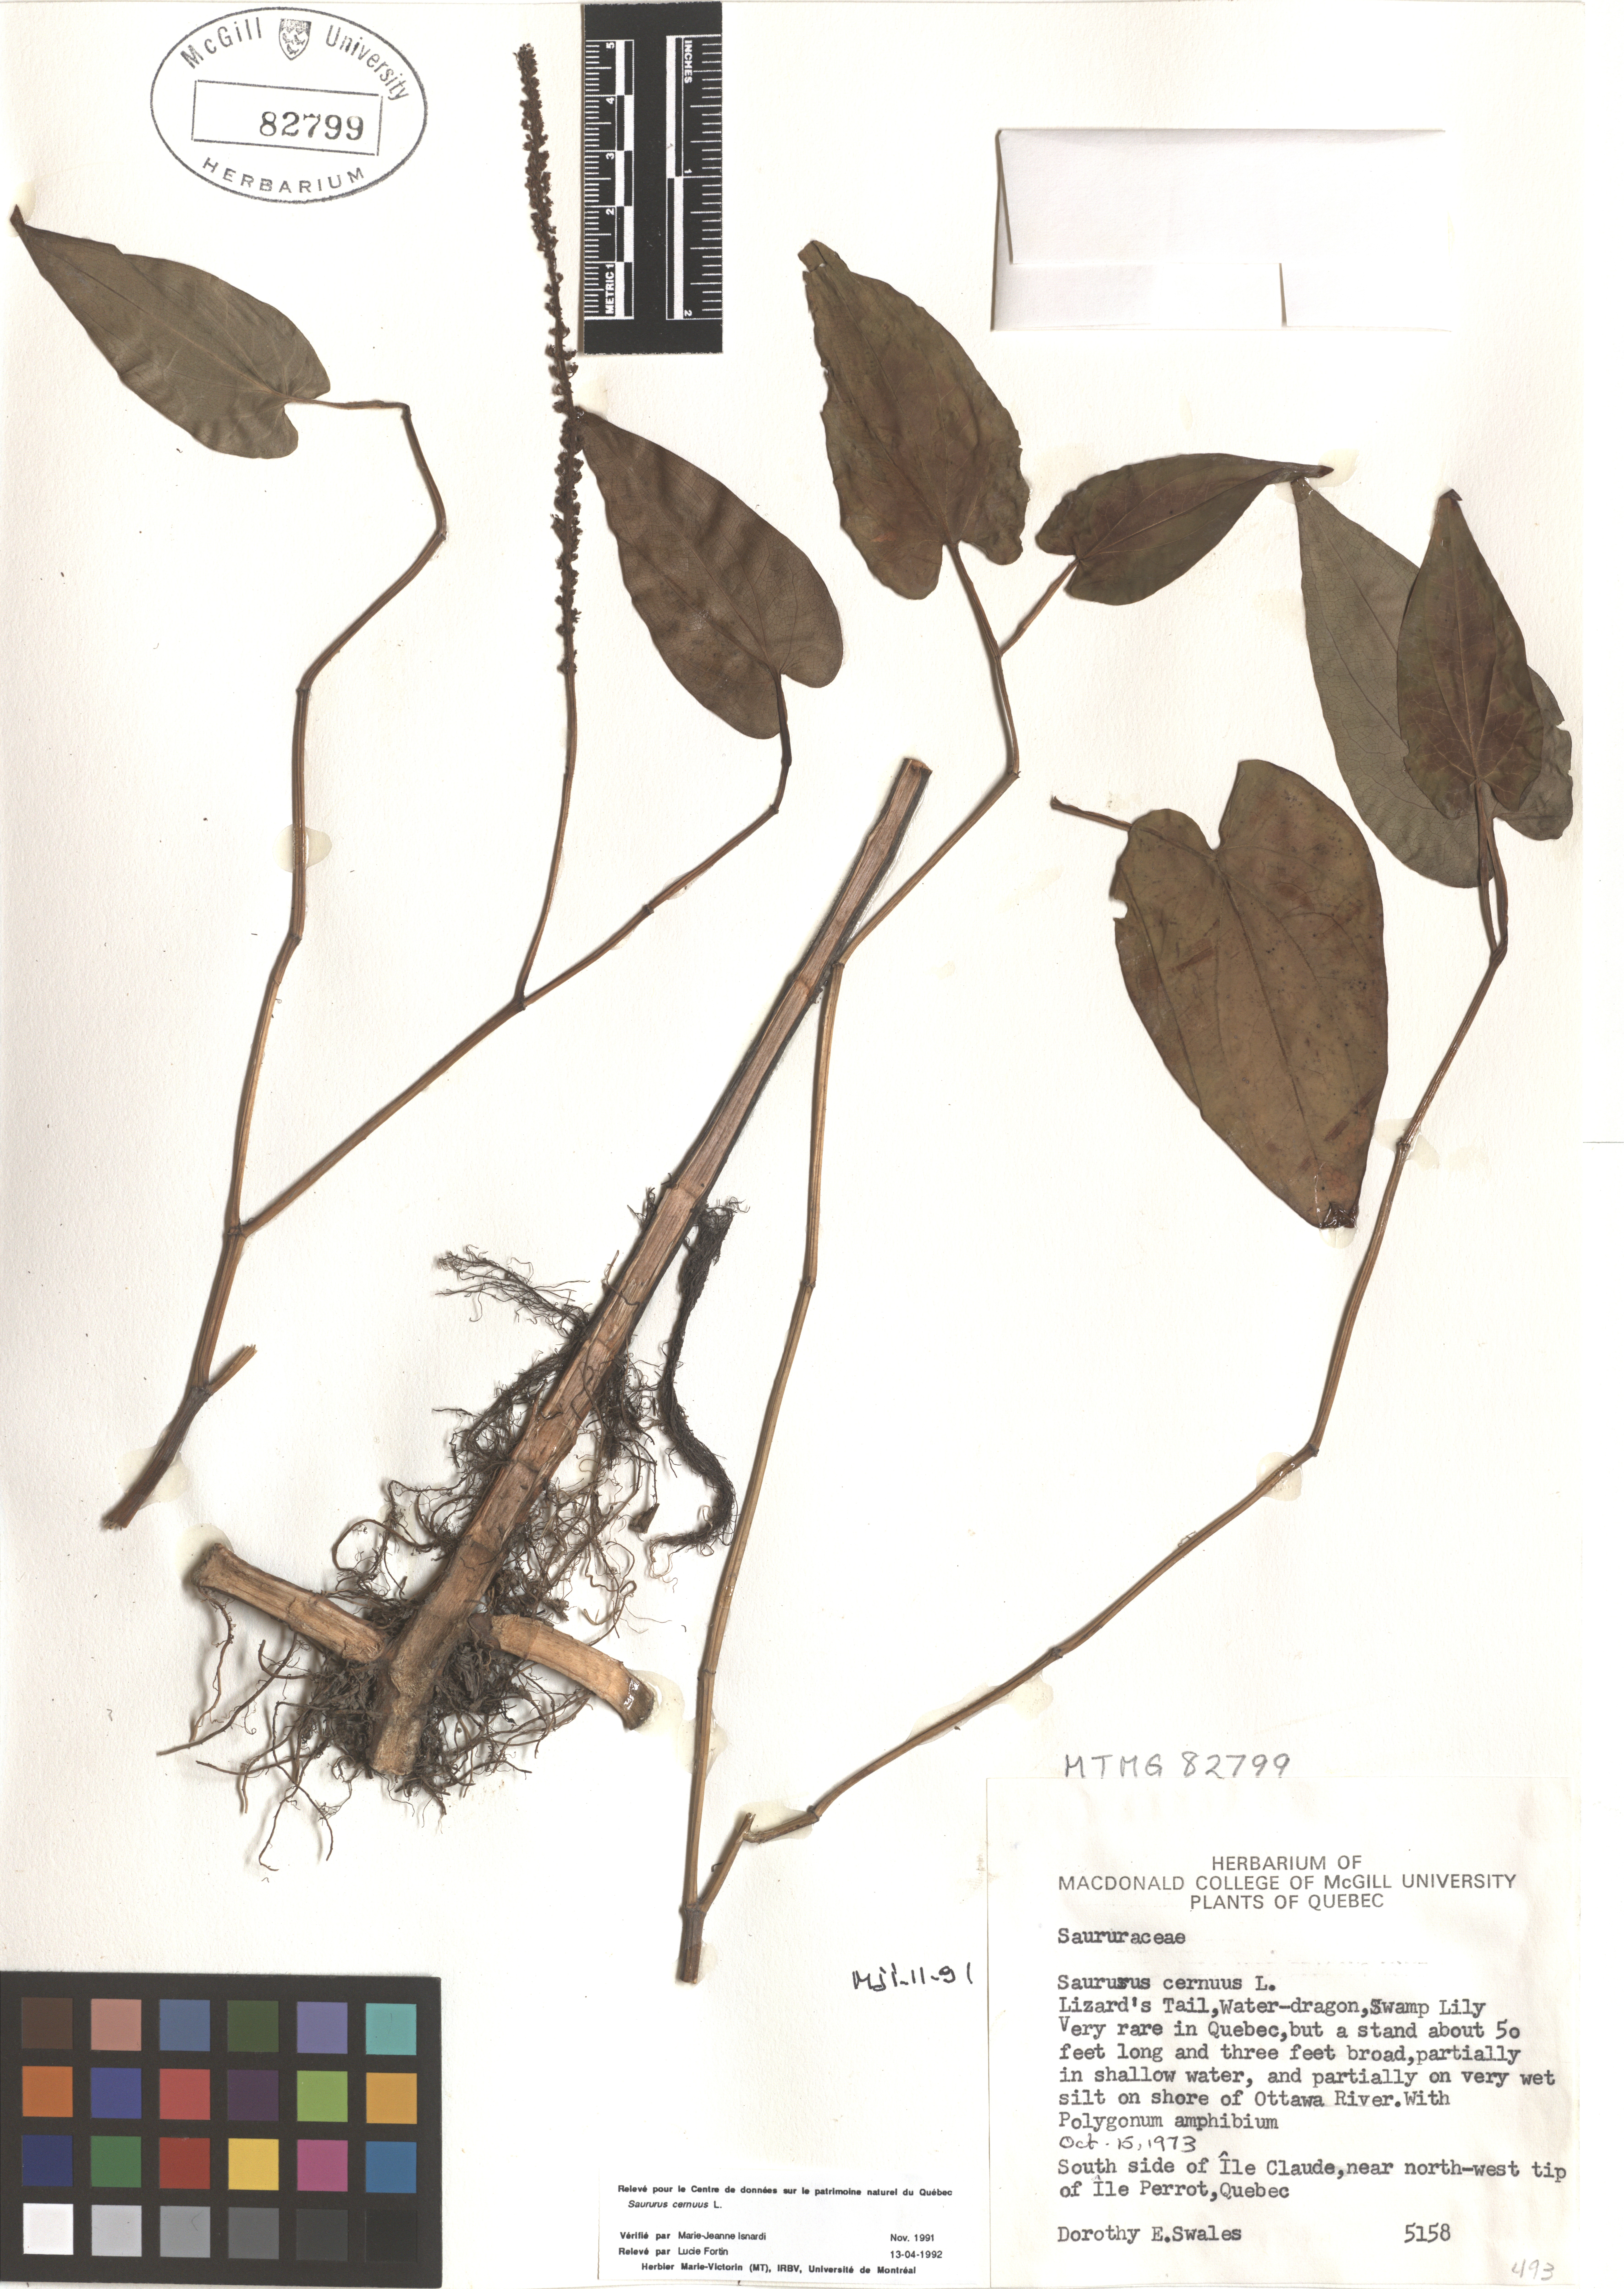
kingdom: Plantae
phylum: Tracheophyta
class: Magnoliopsida
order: Piperales
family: Saururaceae
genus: Saururus
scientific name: Saururus cernuus
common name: Lizard's-tail
